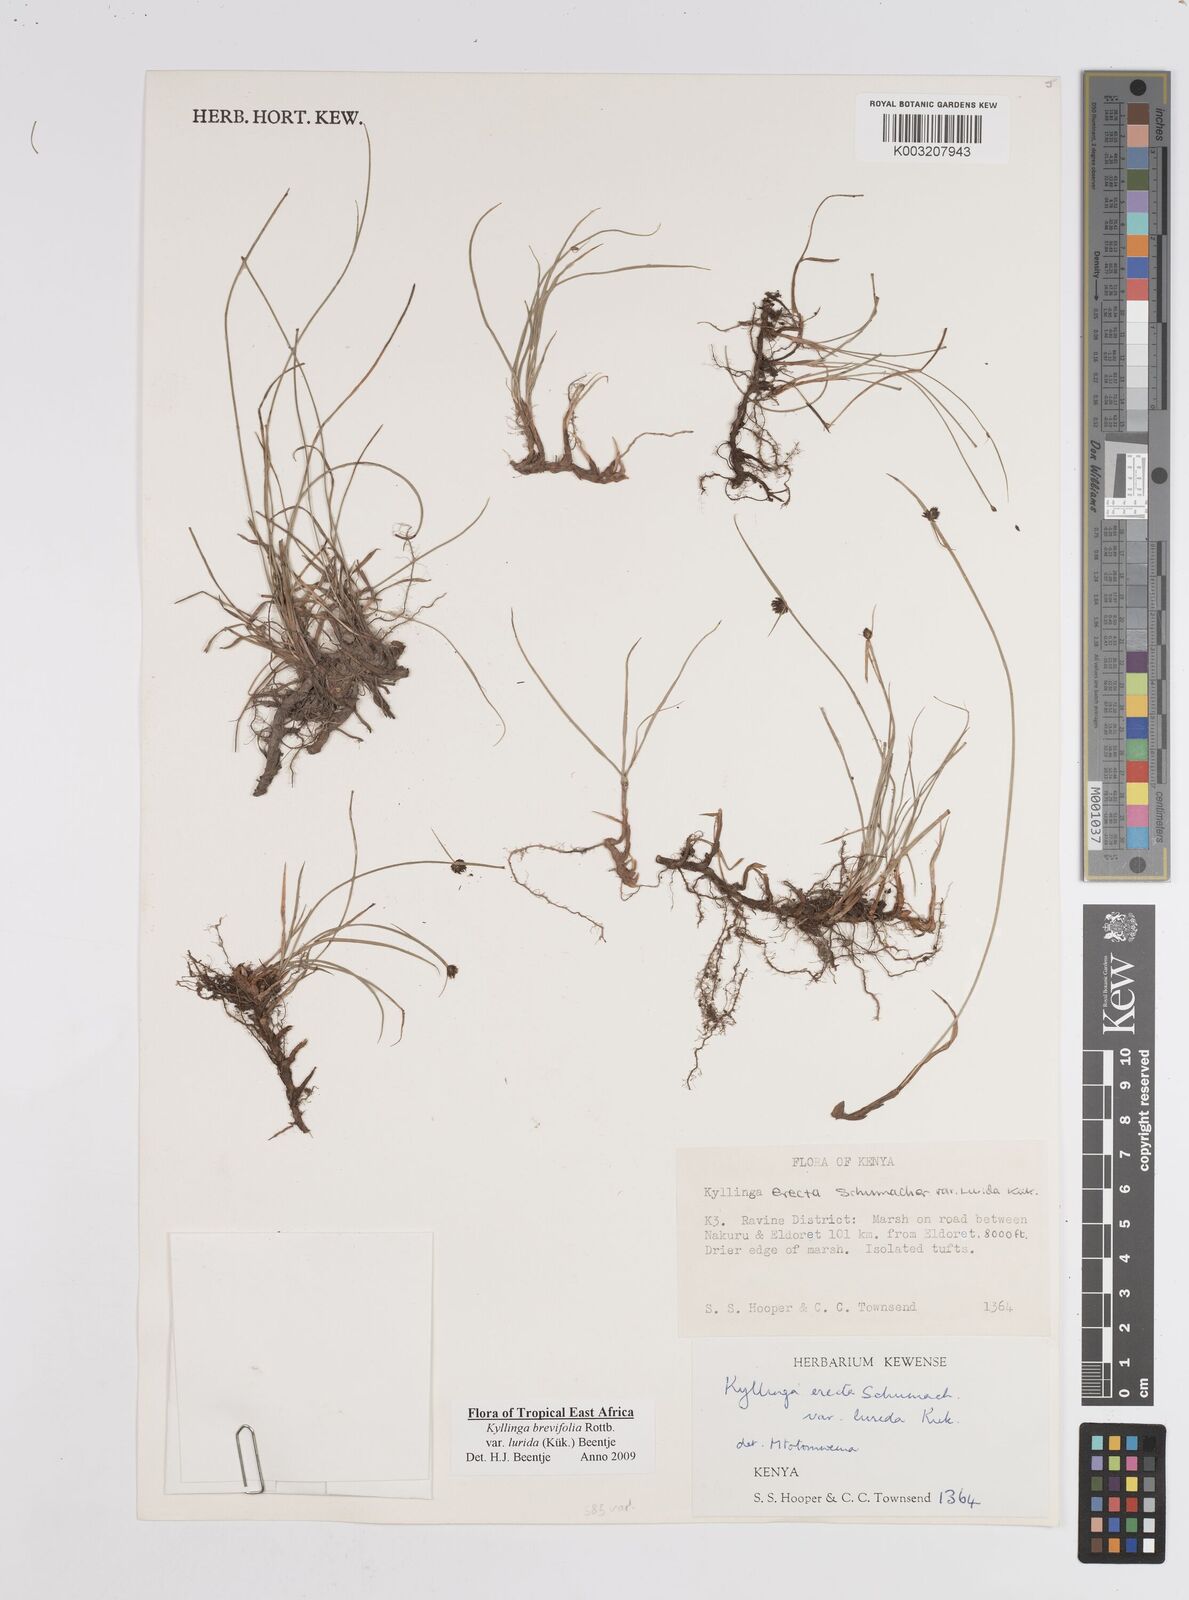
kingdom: Plantae
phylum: Tracheophyta
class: Liliopsida
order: Poales
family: Cyperaceae
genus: Cyperus
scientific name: Cyperus erectus
